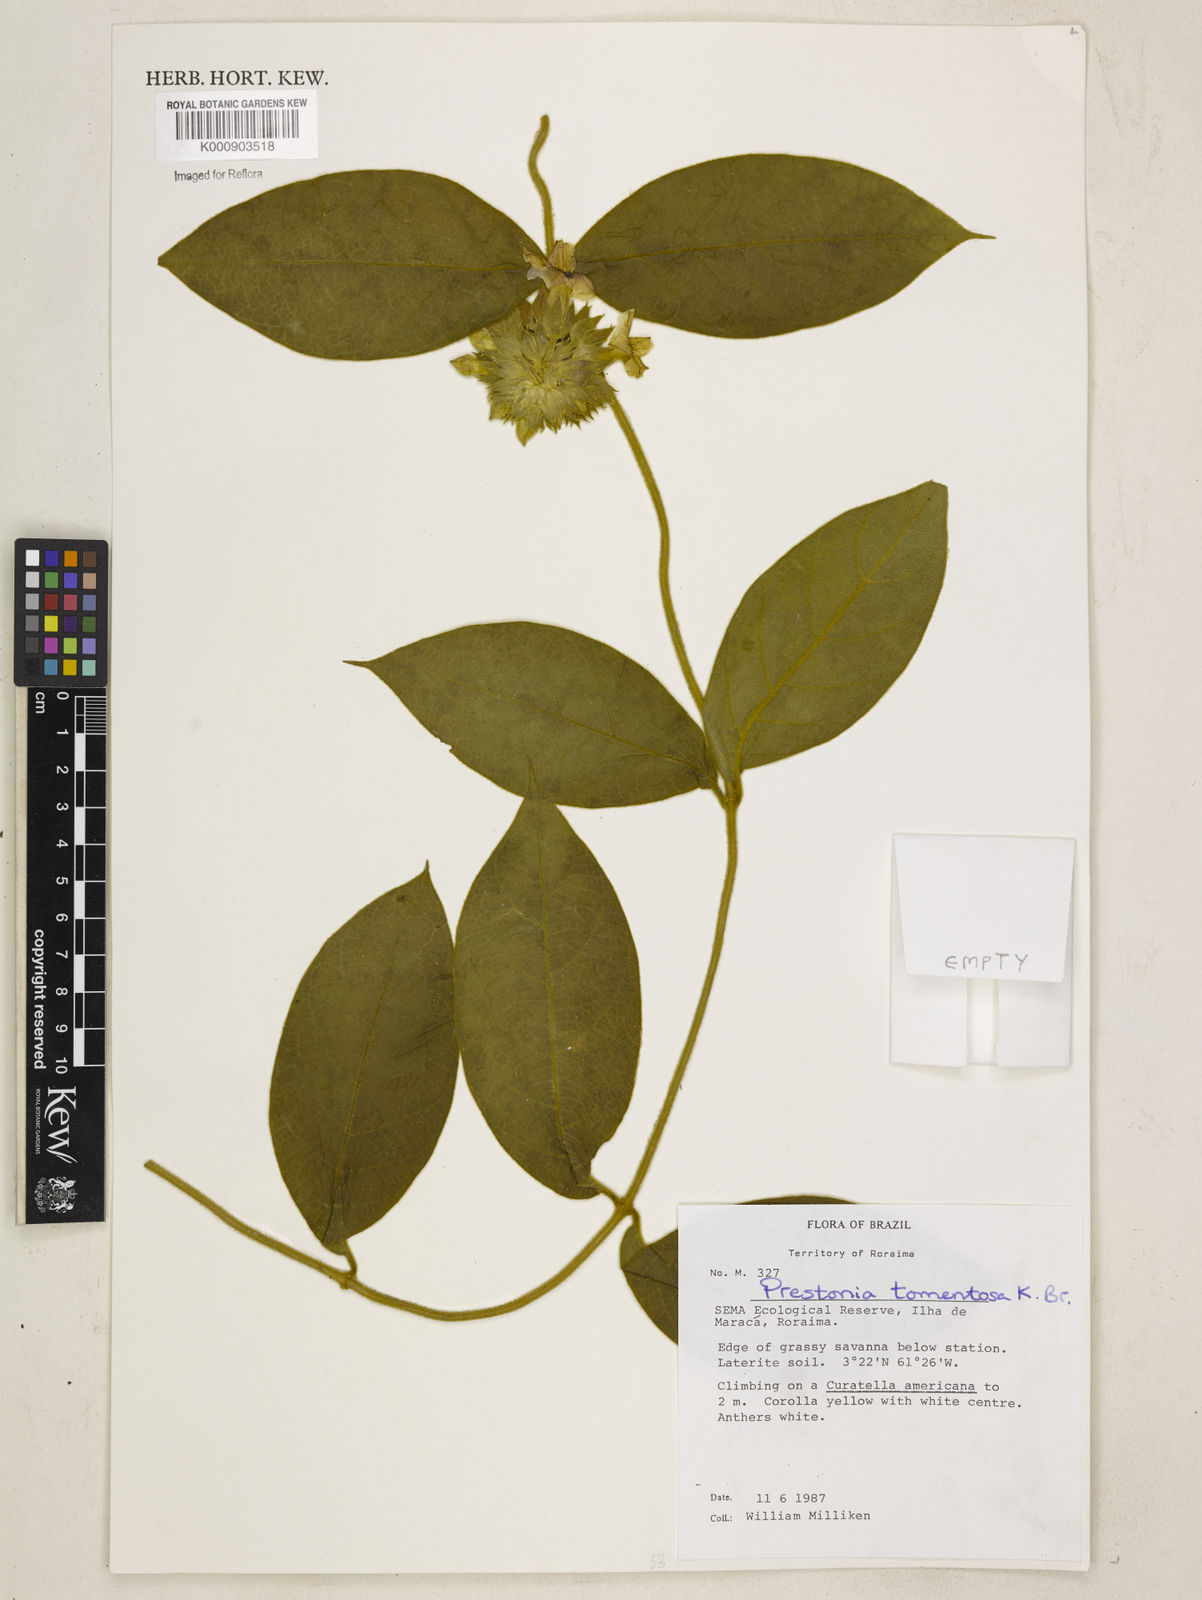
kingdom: Plantae
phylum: Tracheophyta
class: Magnoliopsida
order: Gentianales
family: Apocynaceae
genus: Prestonia
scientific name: Prestonia tomentosa
